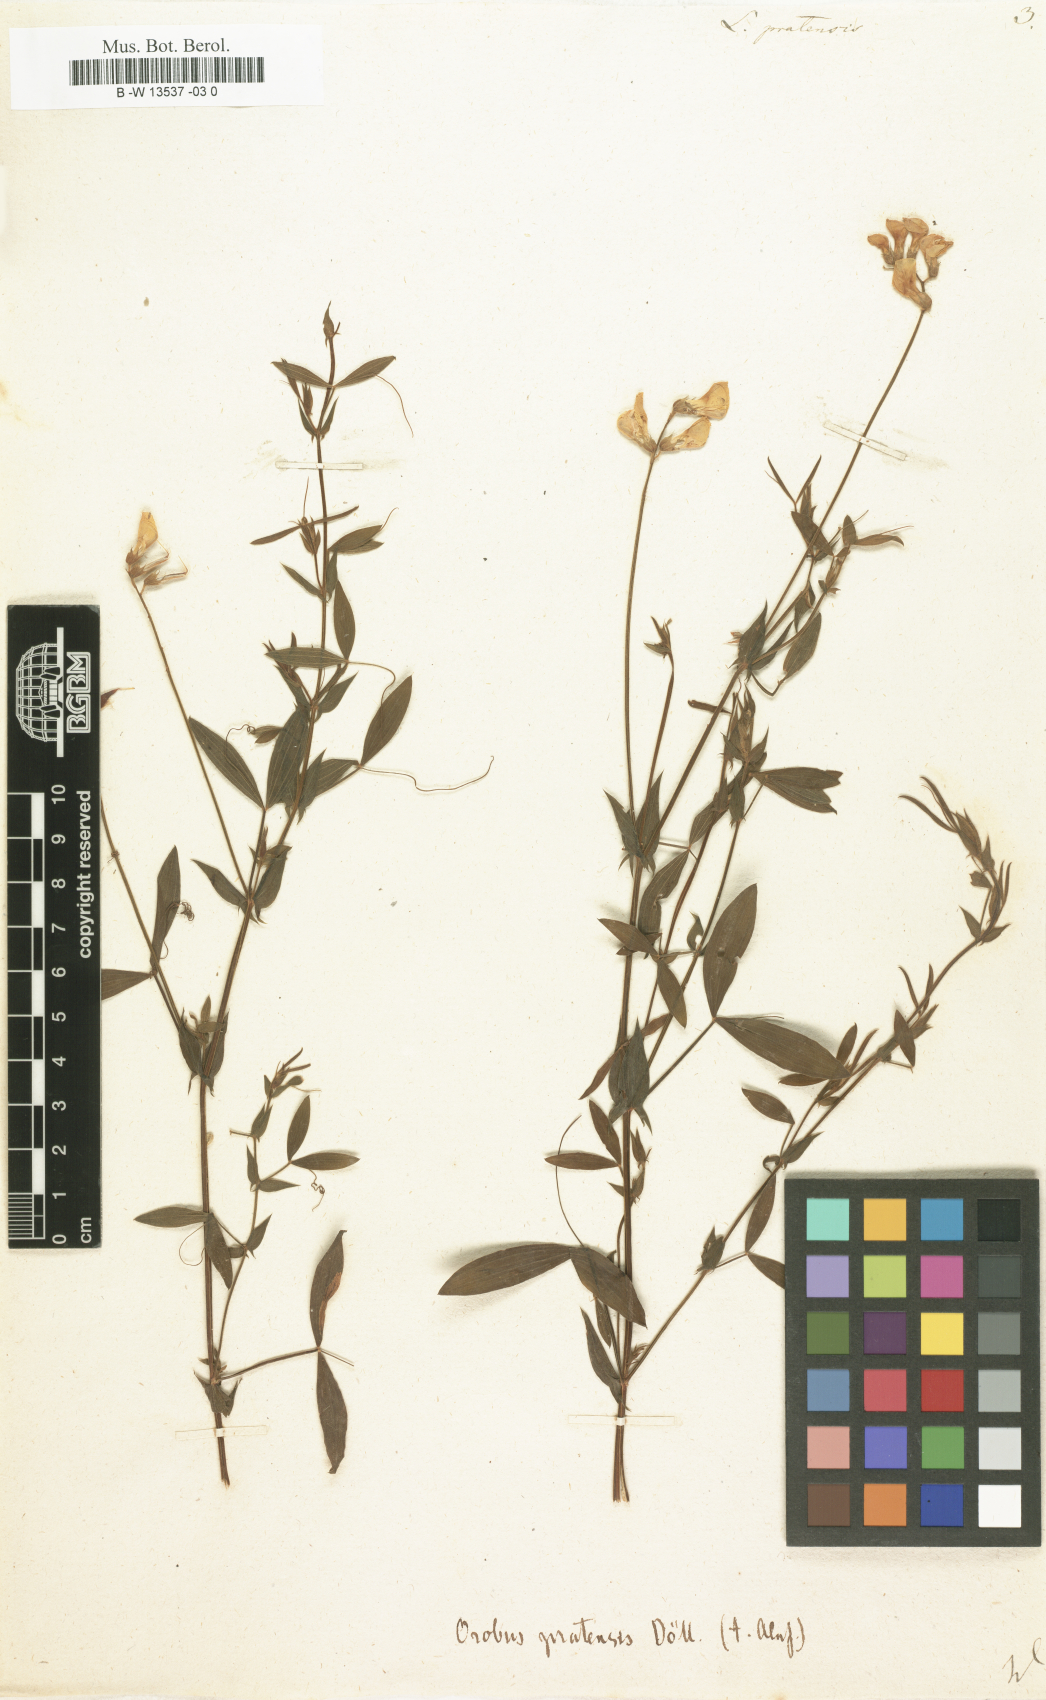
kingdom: Plantae
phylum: Tracheophyta
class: Magnoliopsida
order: Fabales
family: Fabaceae
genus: Lathyrus
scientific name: Lathyrus pratensis
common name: Meadow vetchling
